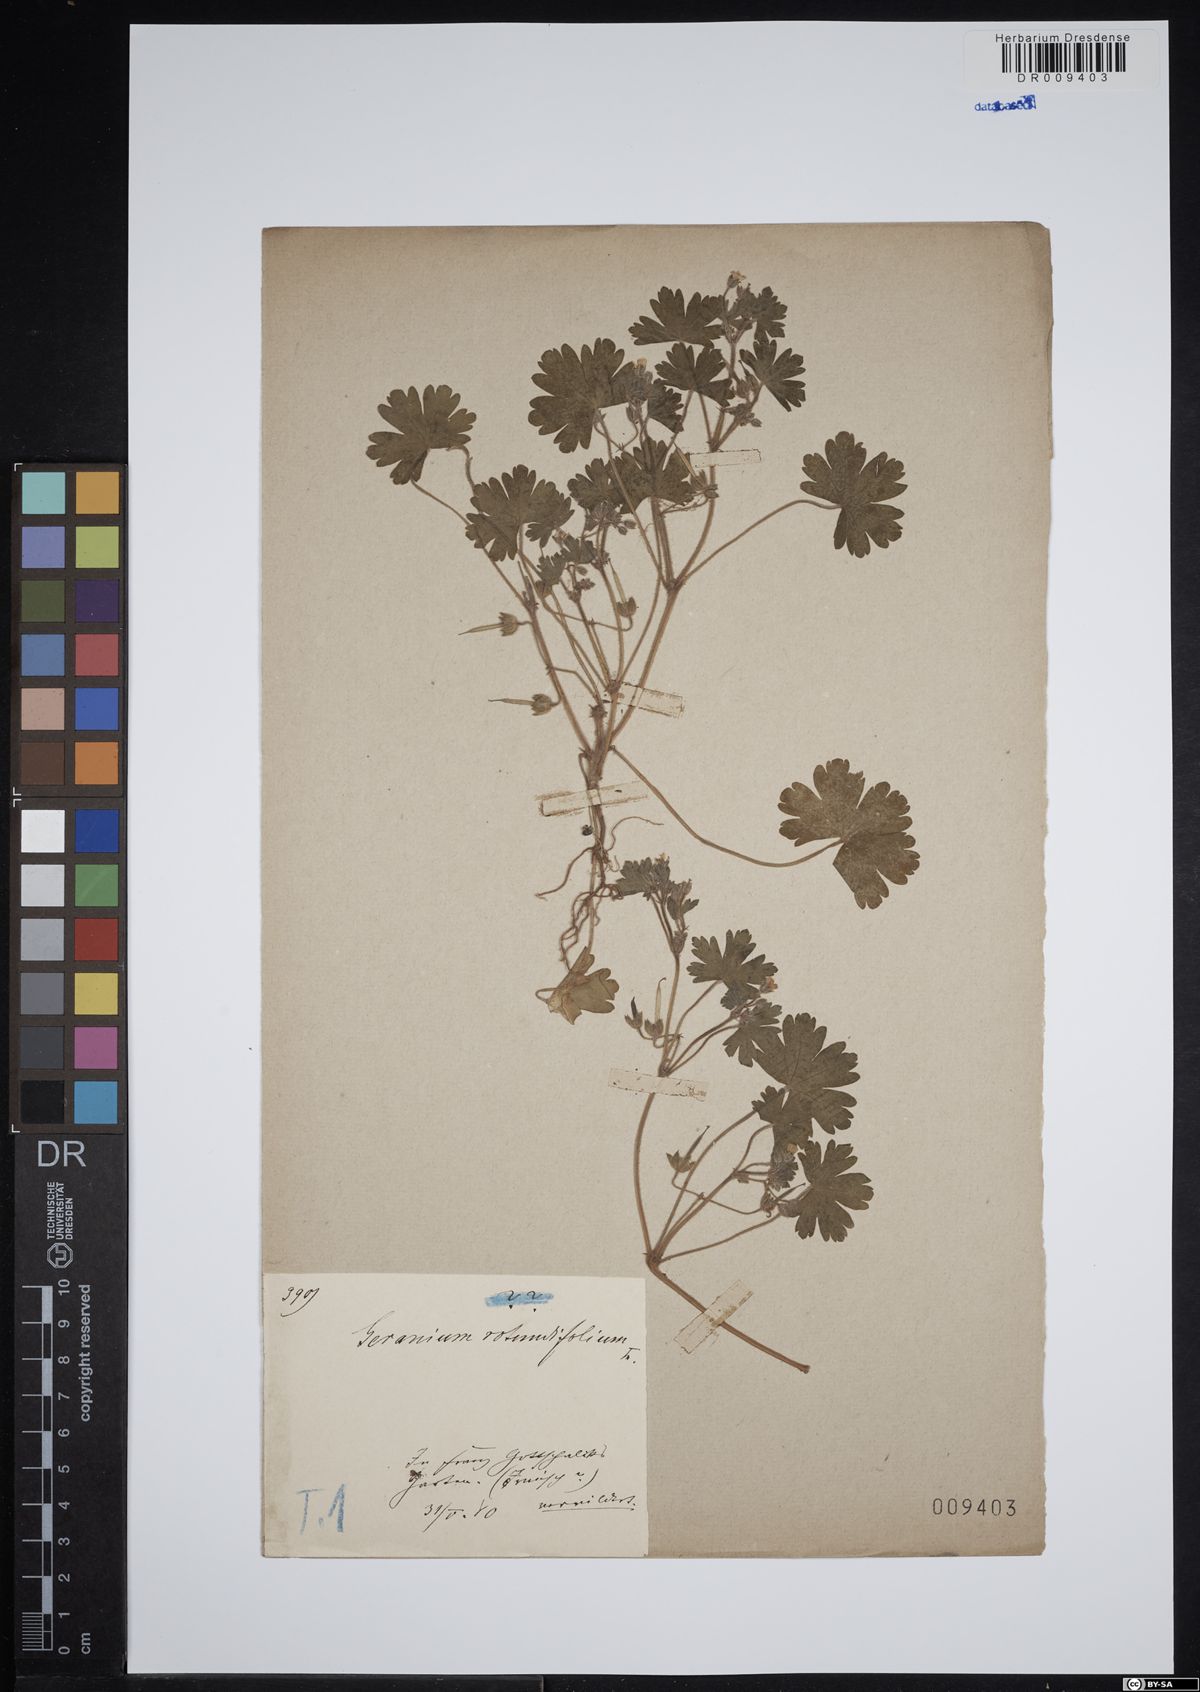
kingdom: Plantae
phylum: Tracheophyta
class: Magnoliopsida
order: Geraniales
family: Geraniaceae
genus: Geranium
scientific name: Geranium rotundifolium
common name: Round-leaved crane's-bill
